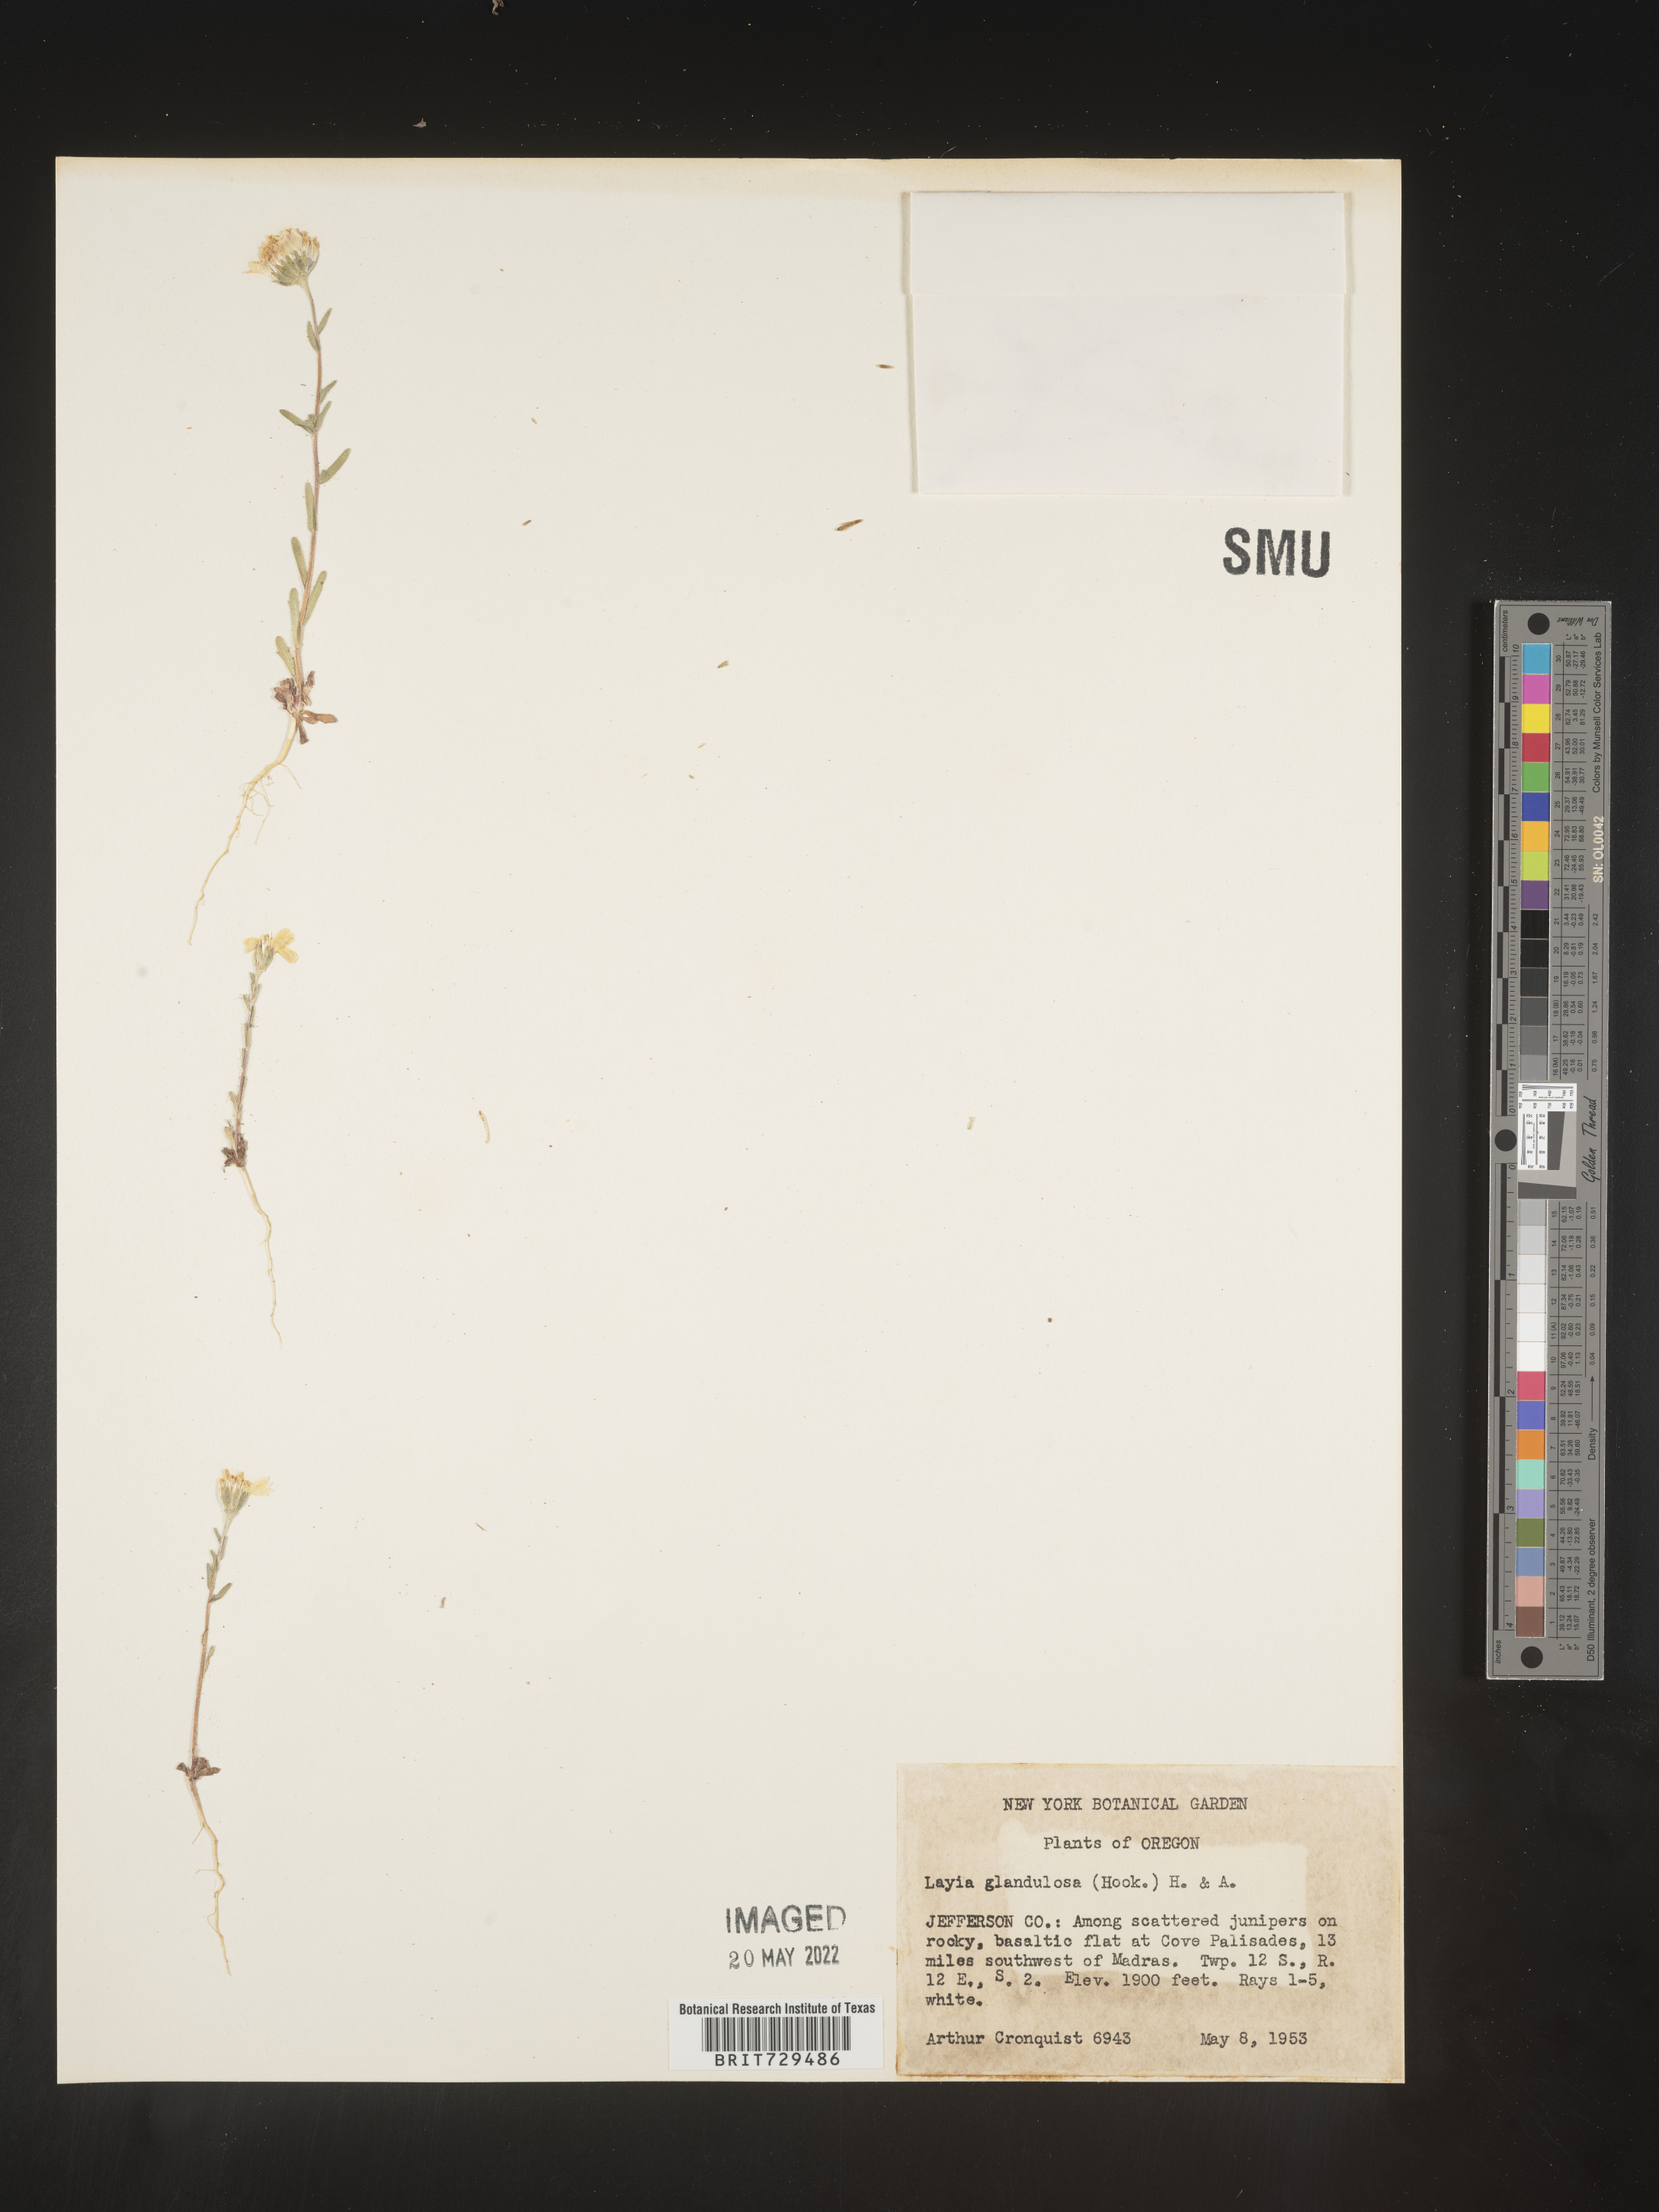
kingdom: Plantae
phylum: Tracheophyta
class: Magnoliopsida
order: Asterales
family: Asteraceae
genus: Layia
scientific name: Layia
